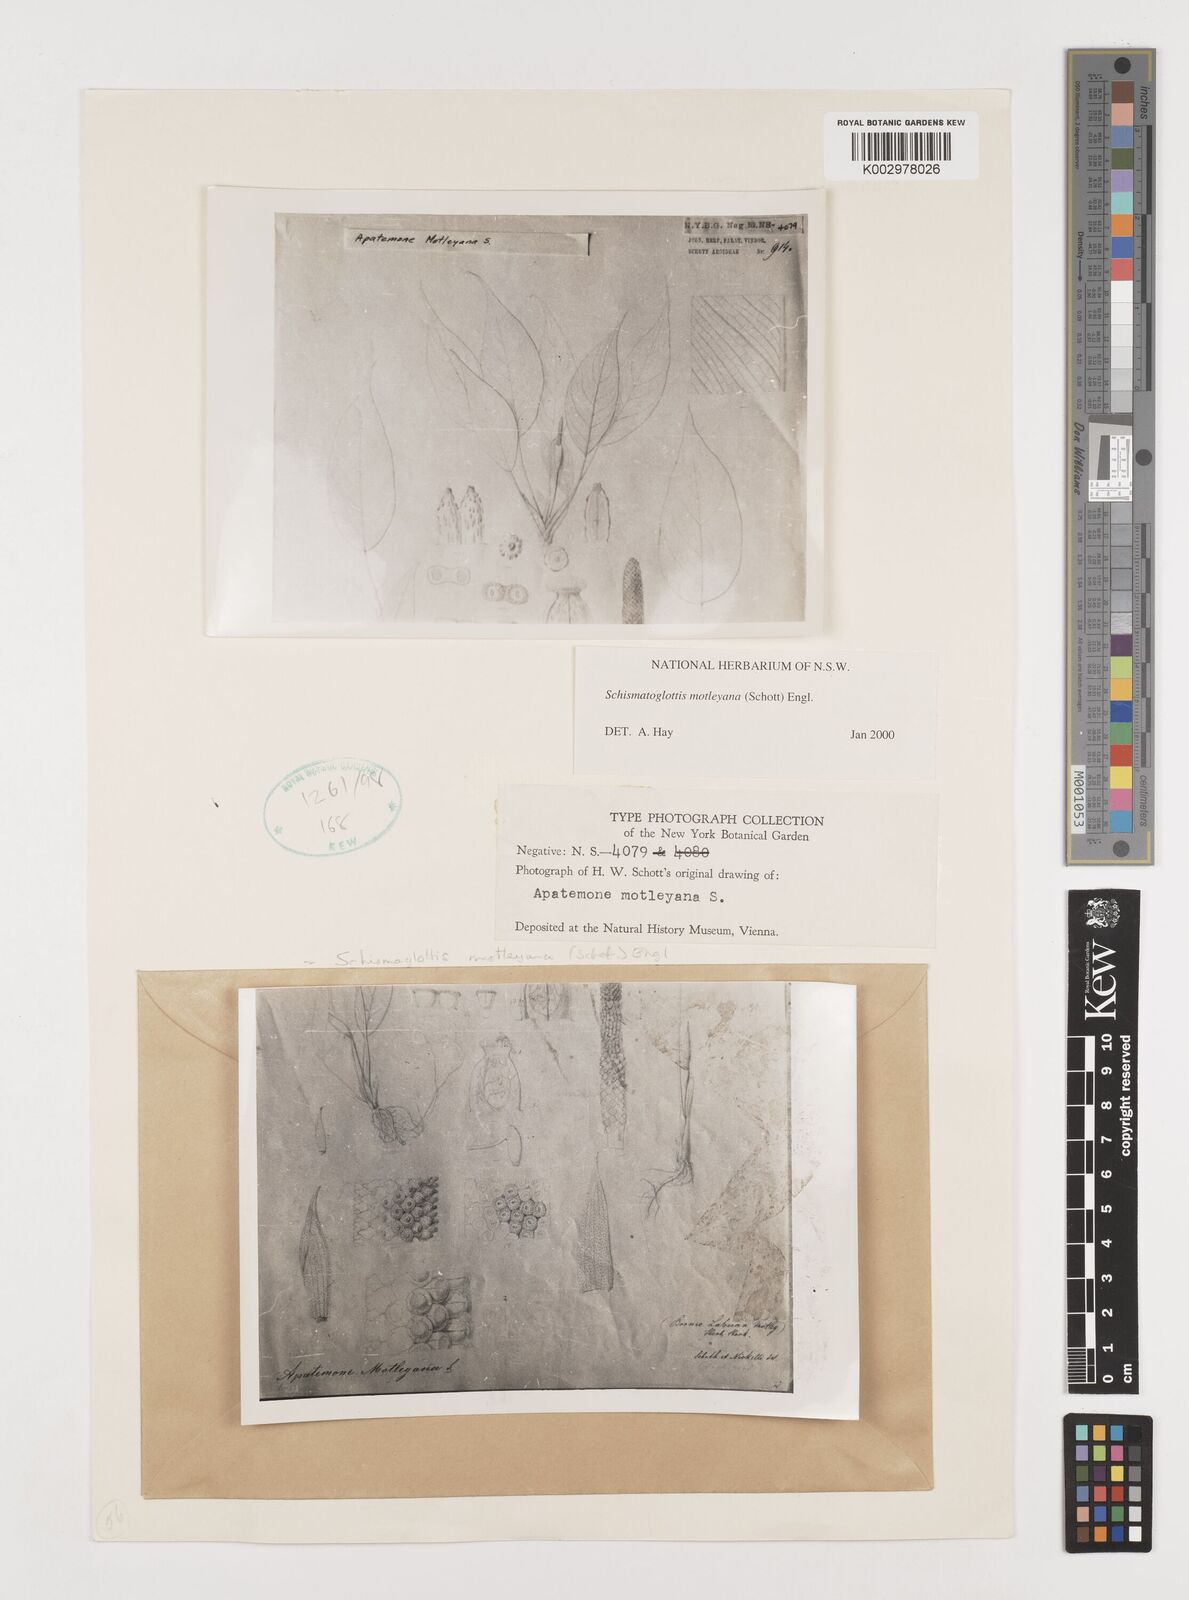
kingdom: Plantae
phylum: Tracheophyta
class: Liliopsida
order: Alismatales
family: Araceae
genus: Schismatoglottis
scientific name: Schismatoglottis motleyana
